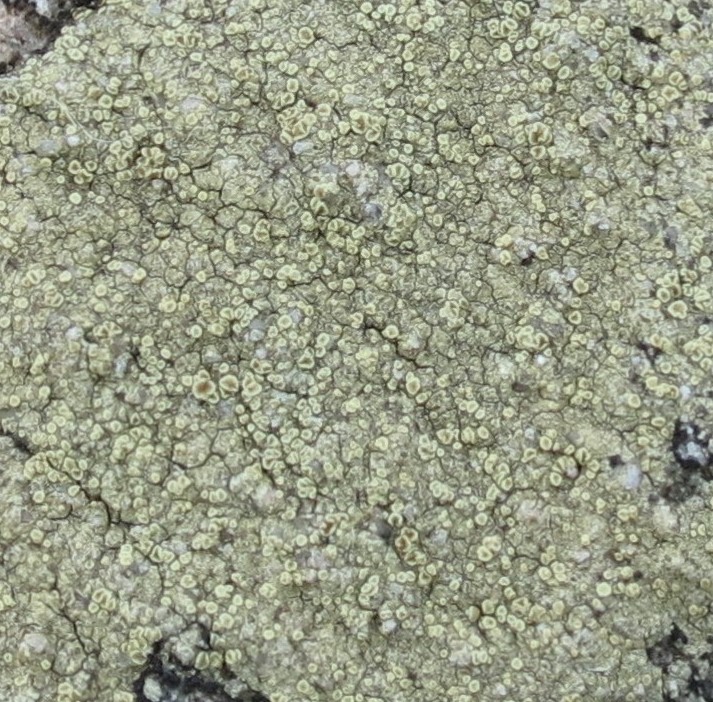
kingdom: Fungi
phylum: Ascomycota
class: Lecanoromycetes
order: Lecanorales
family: Lecanoraceae
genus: Lecanora
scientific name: Lecanora polytropa
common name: bleggrøn kantskivelav
